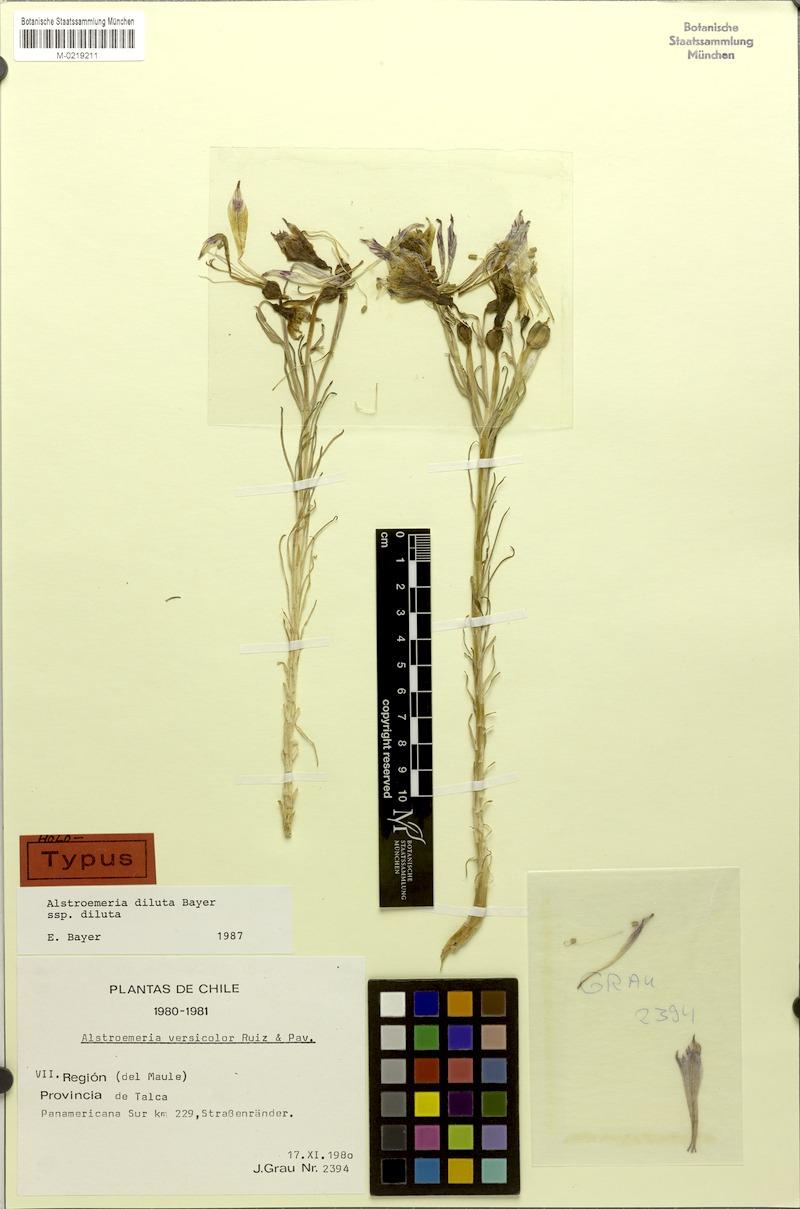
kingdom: Plantae
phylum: Tracheophyta
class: Liliopsida
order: Liliales
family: Alstroemeriaceae
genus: Alstroemeria
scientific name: Alstroemeria diluta
